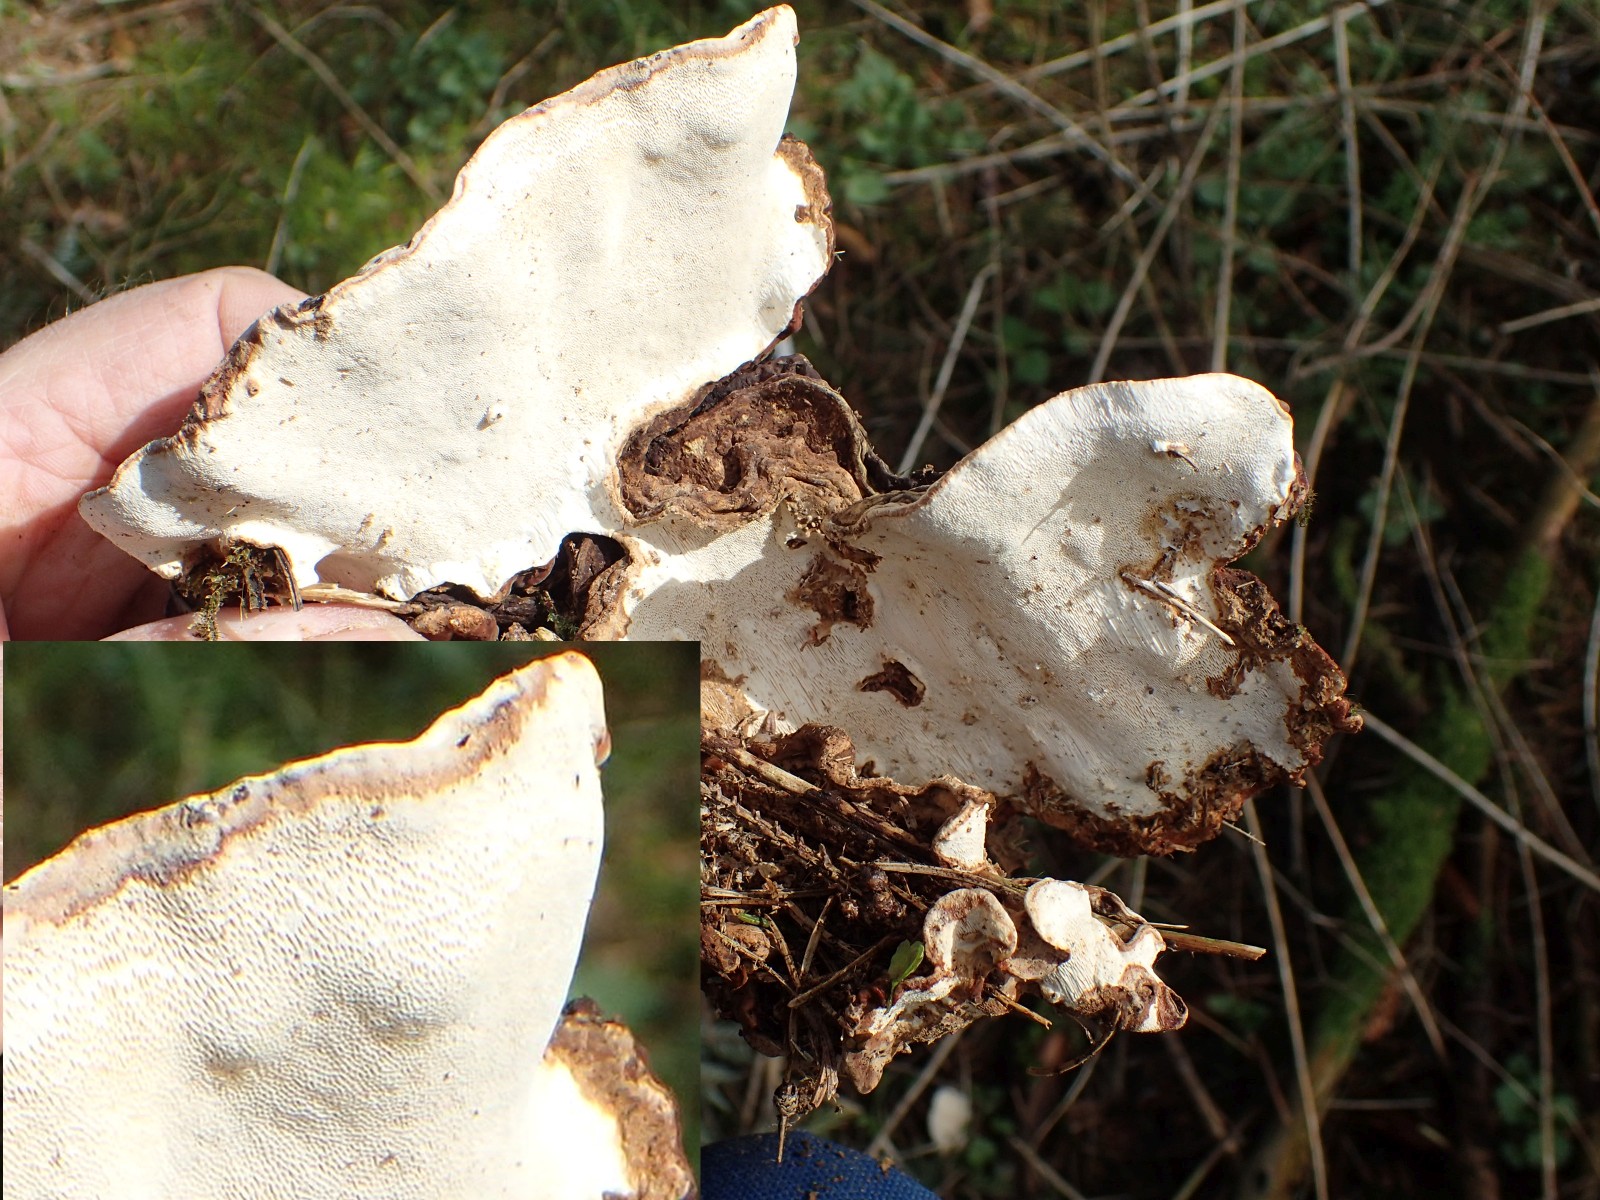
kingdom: Fungi
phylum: Basidiomycota
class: Agaricomycetes
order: Russulales
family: Bondarzewiaceae
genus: Heterobasidion
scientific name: Heterobasidion parviporum
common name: småporet rodfordærver
